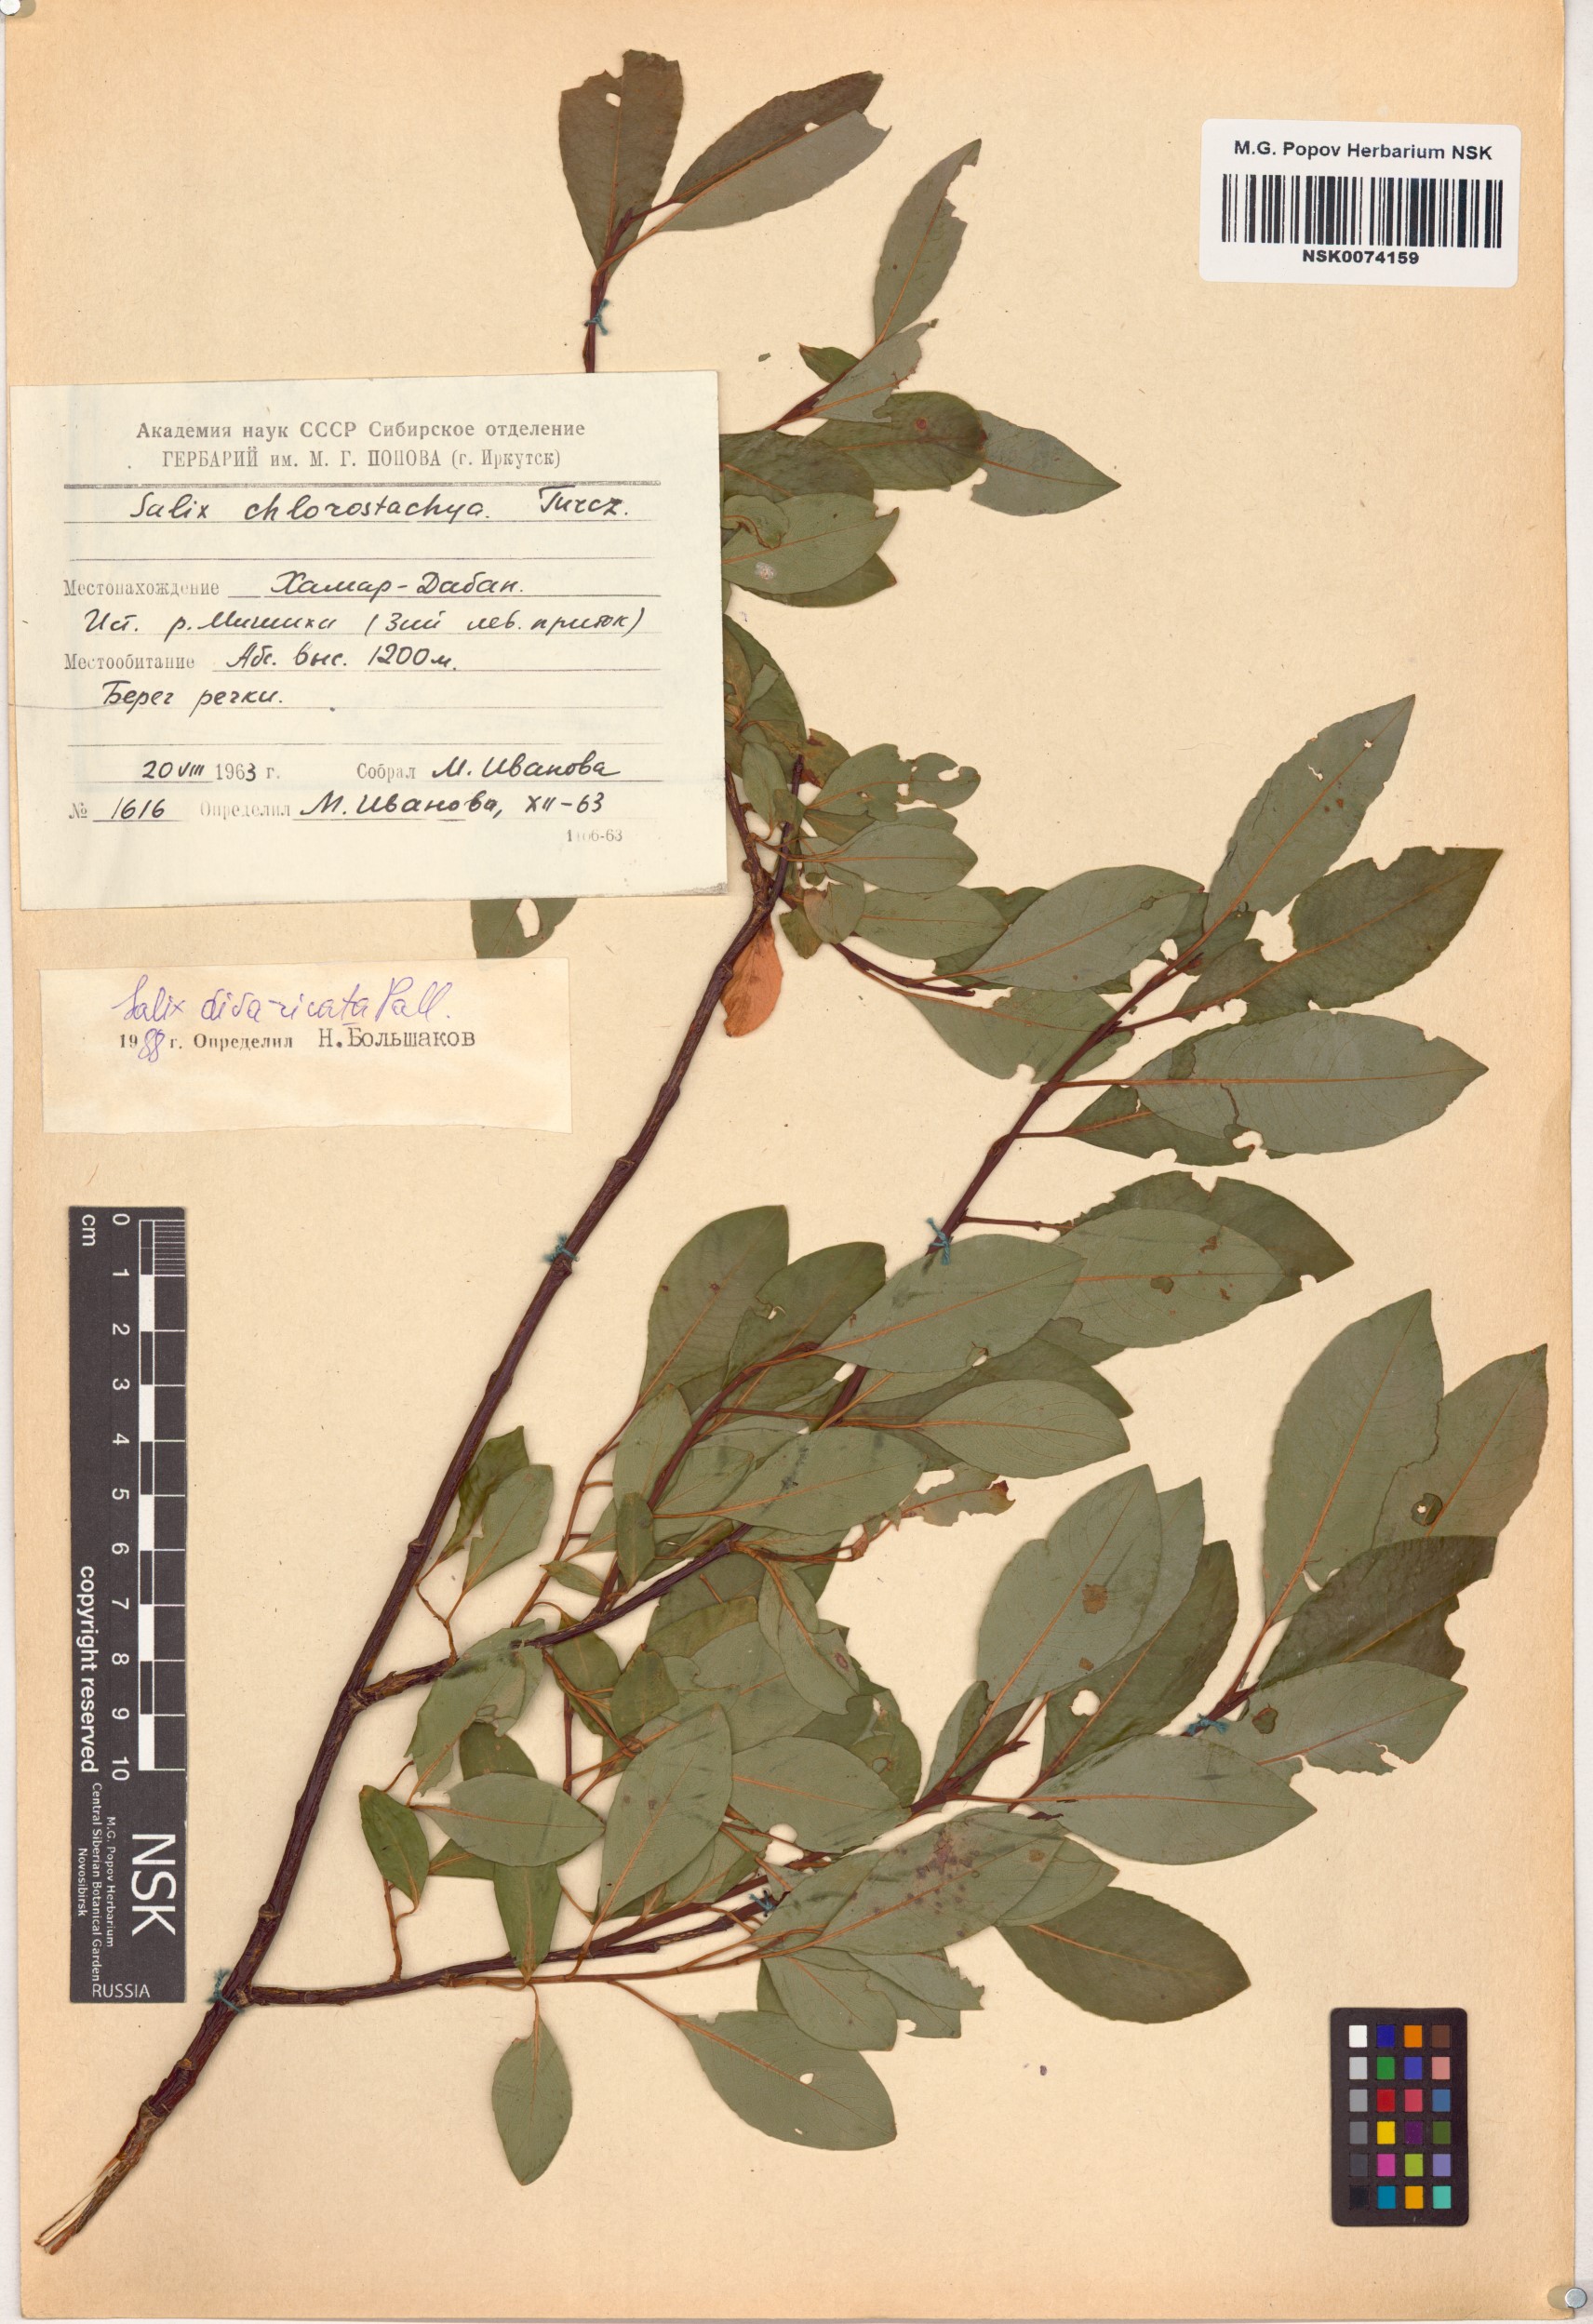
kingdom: Plantae
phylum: Tracheophyta
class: Magnoliopsida
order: Malpighiales
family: Salicaceae
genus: Salix
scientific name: Salix divaricata
